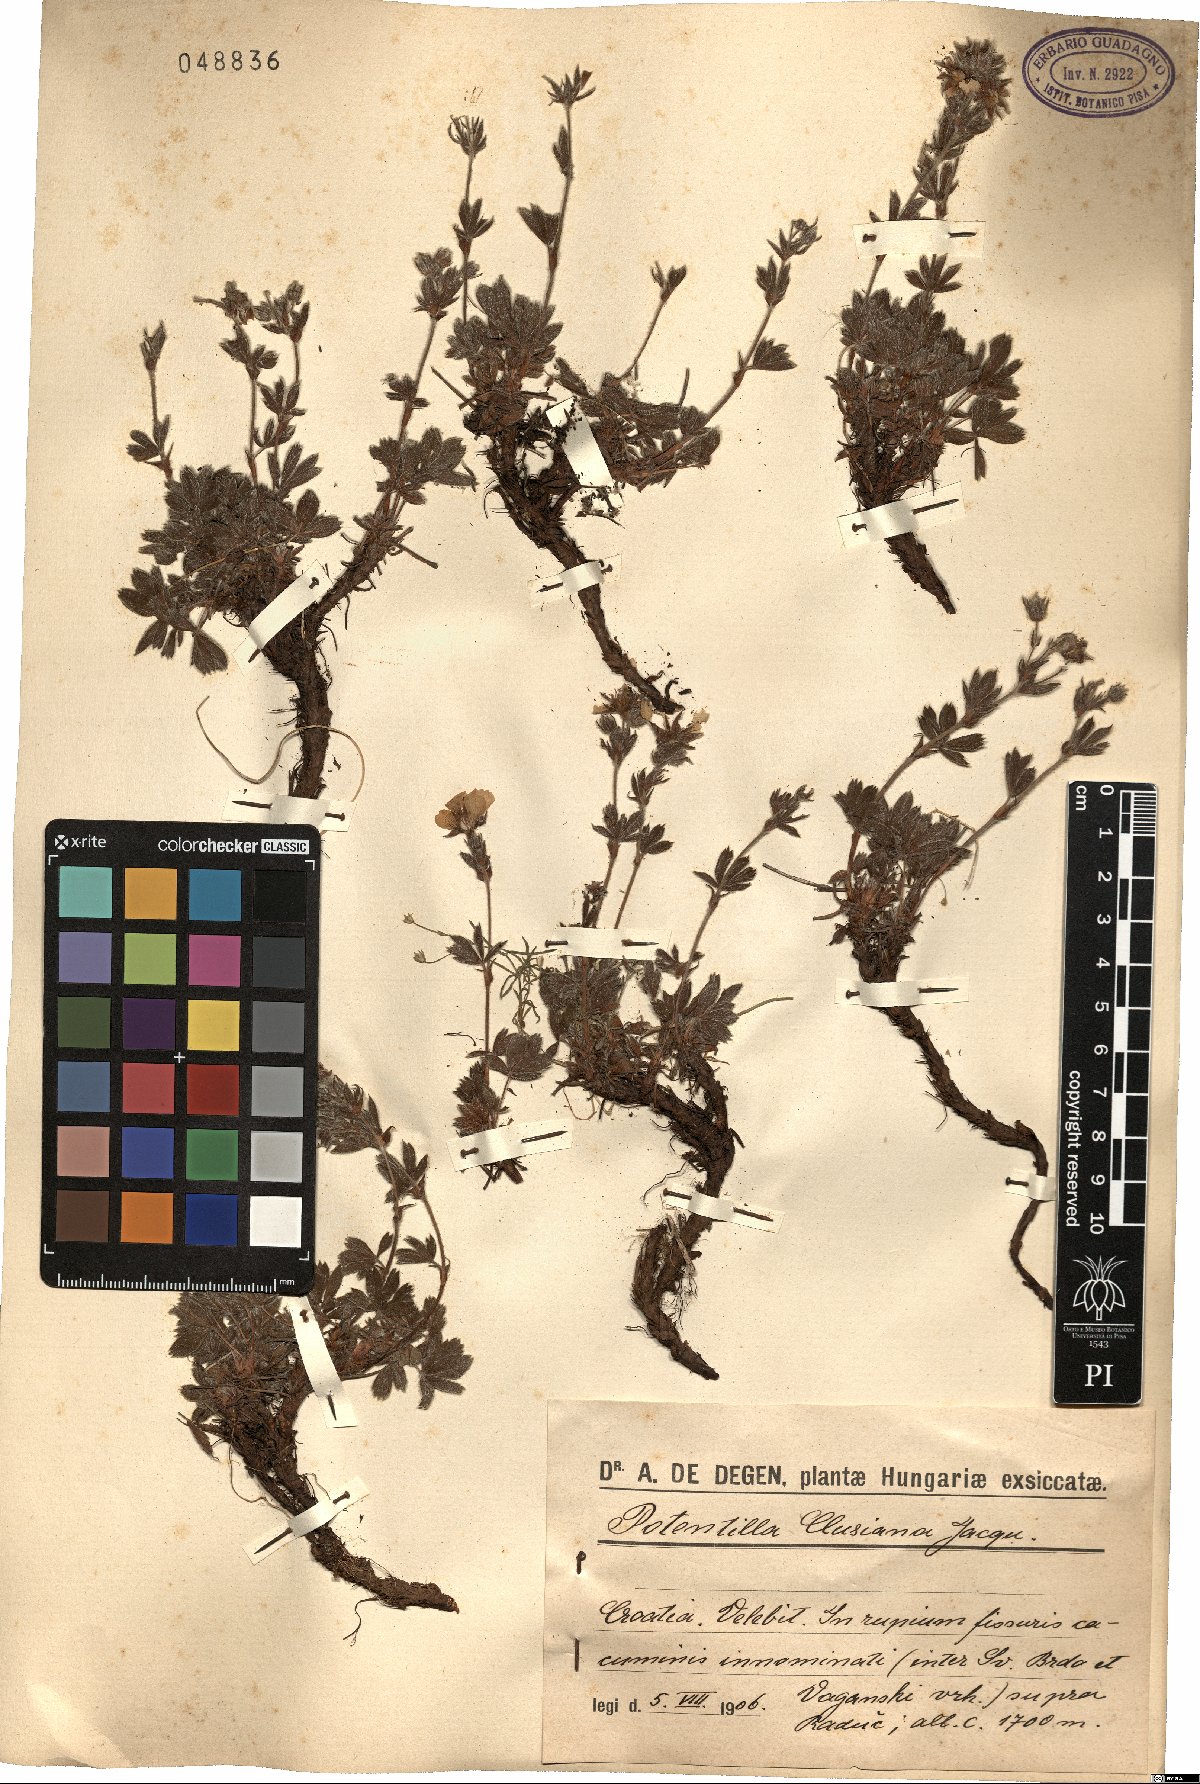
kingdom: Plantae
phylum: Tracheophyta
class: Magnoliopsida
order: Rosales
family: Rosaceae
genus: Potentilla
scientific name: Potentilla clusiana
